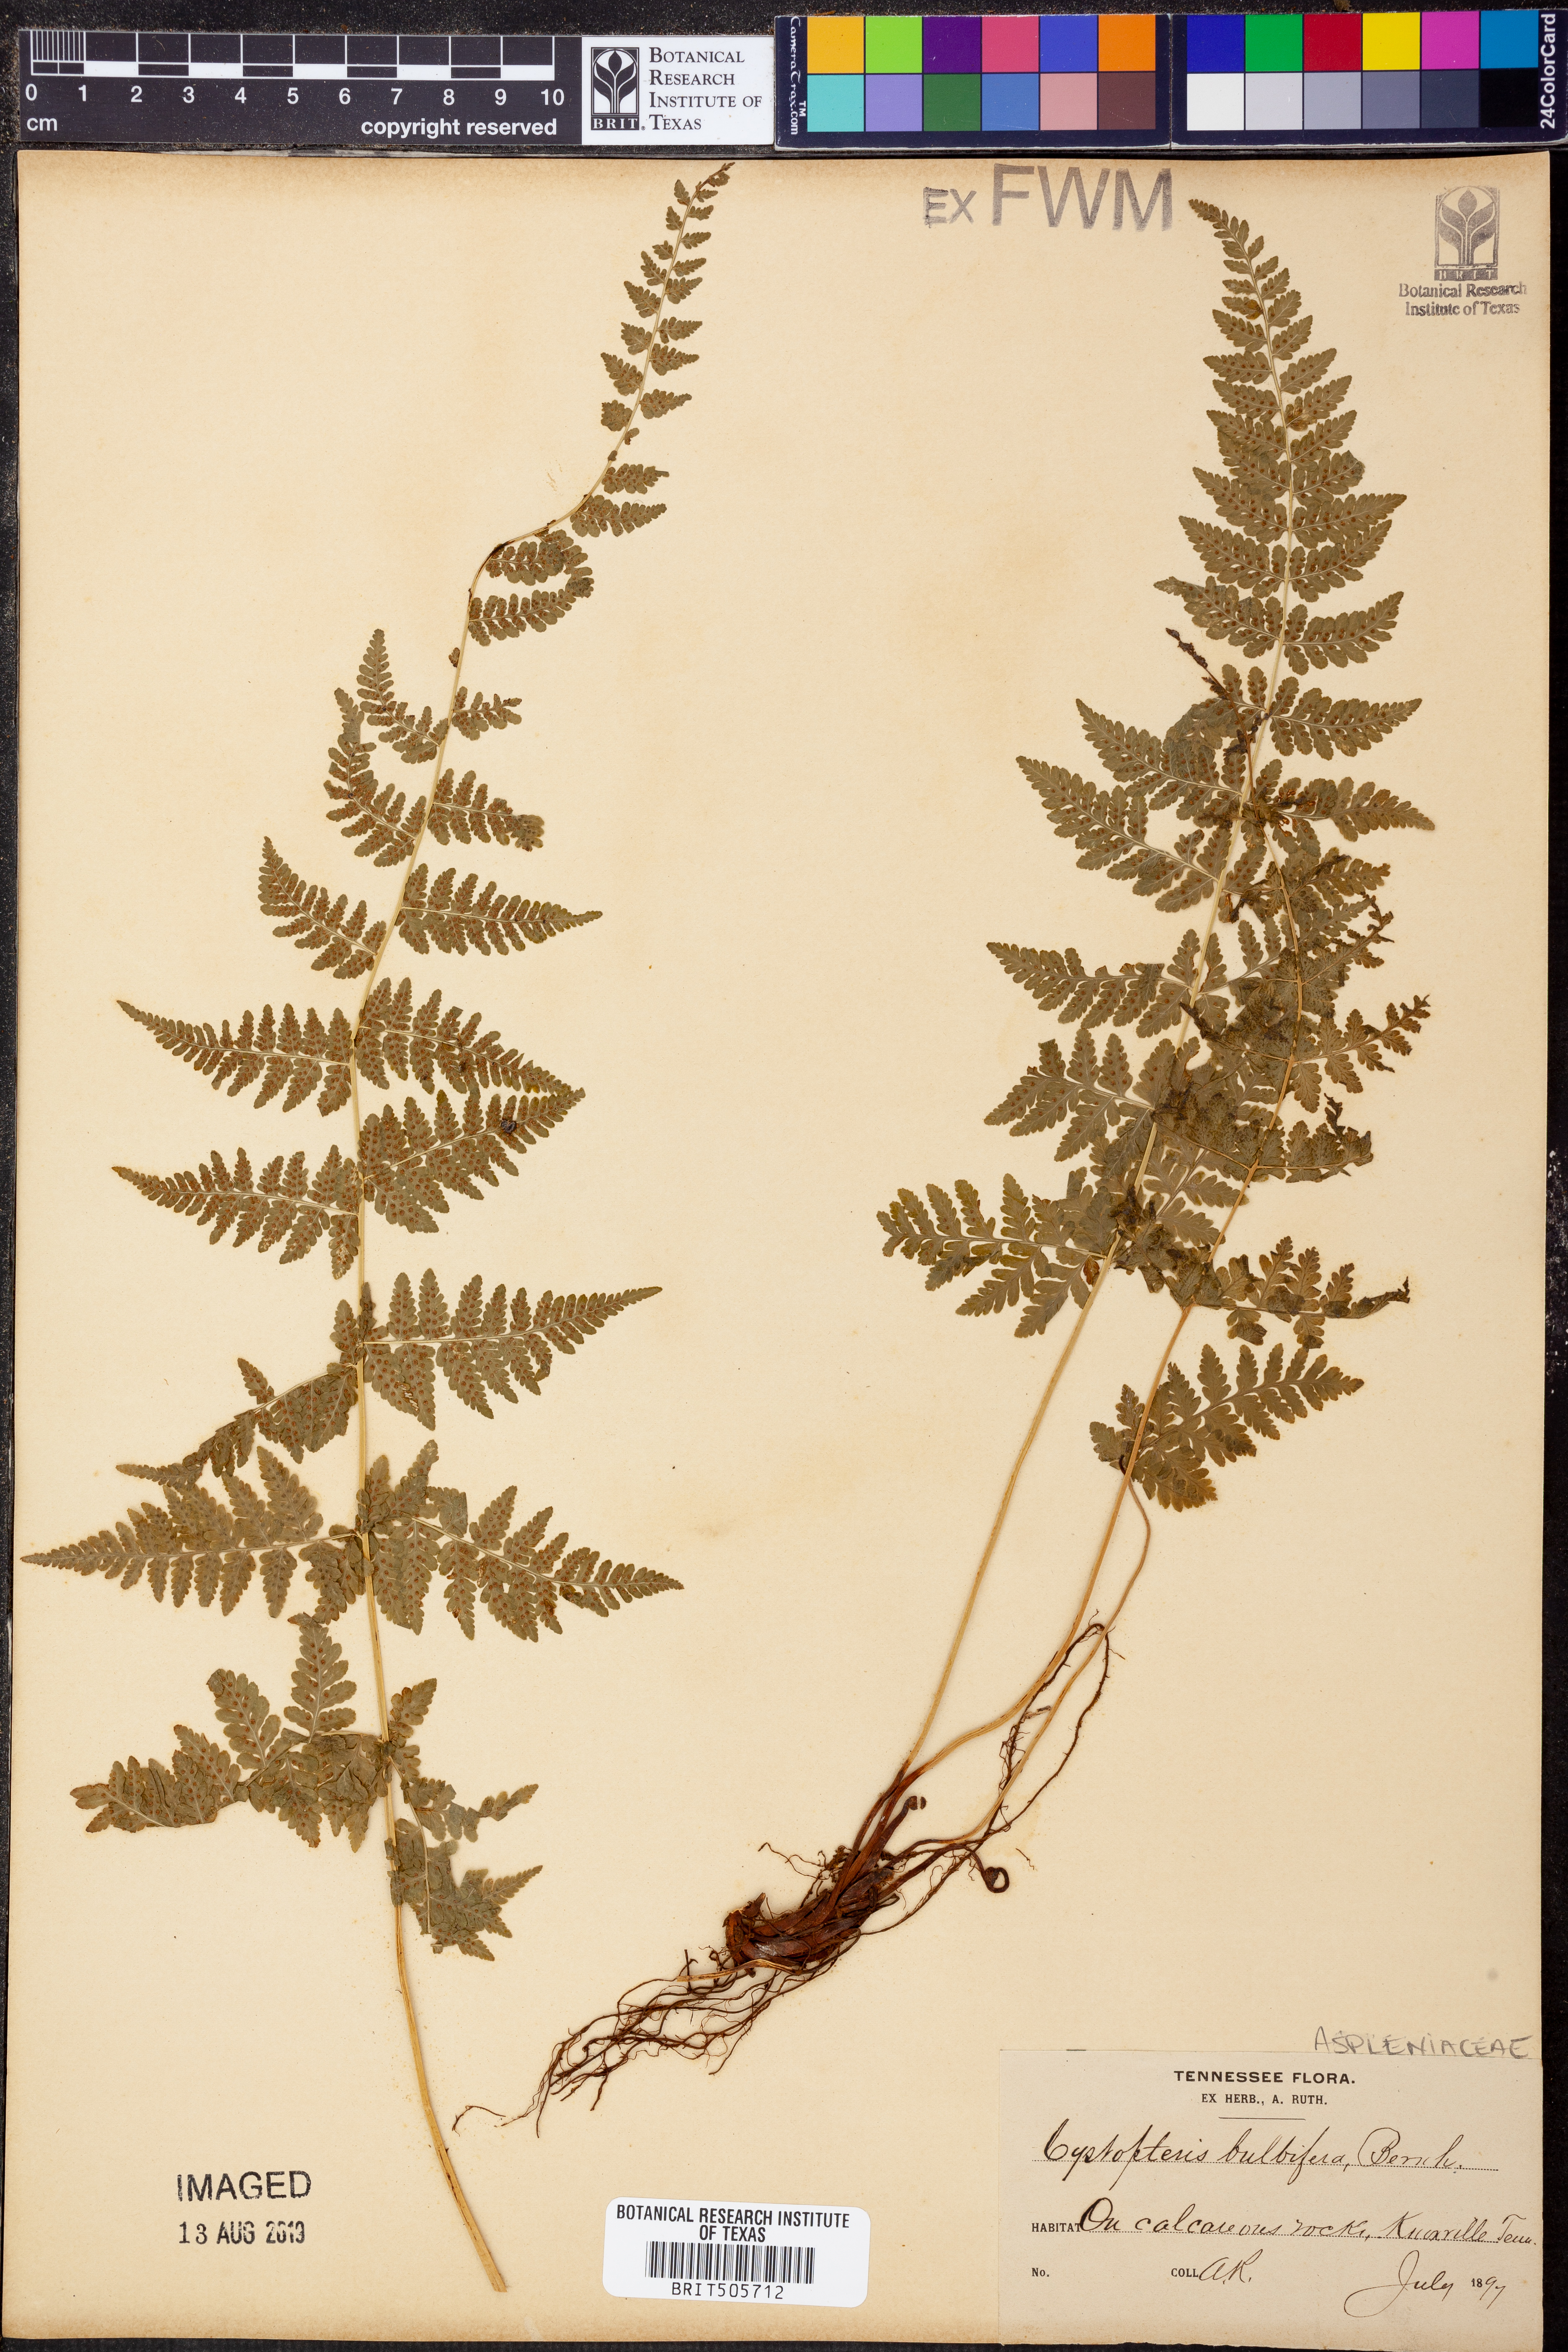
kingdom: Plantae
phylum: Tracheophyta
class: Polypodiopsida
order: Polypodiales
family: Cystopteridaceae
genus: Cystopteris
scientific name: Cystopteris bulbifera
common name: Bulblet bladder fern
